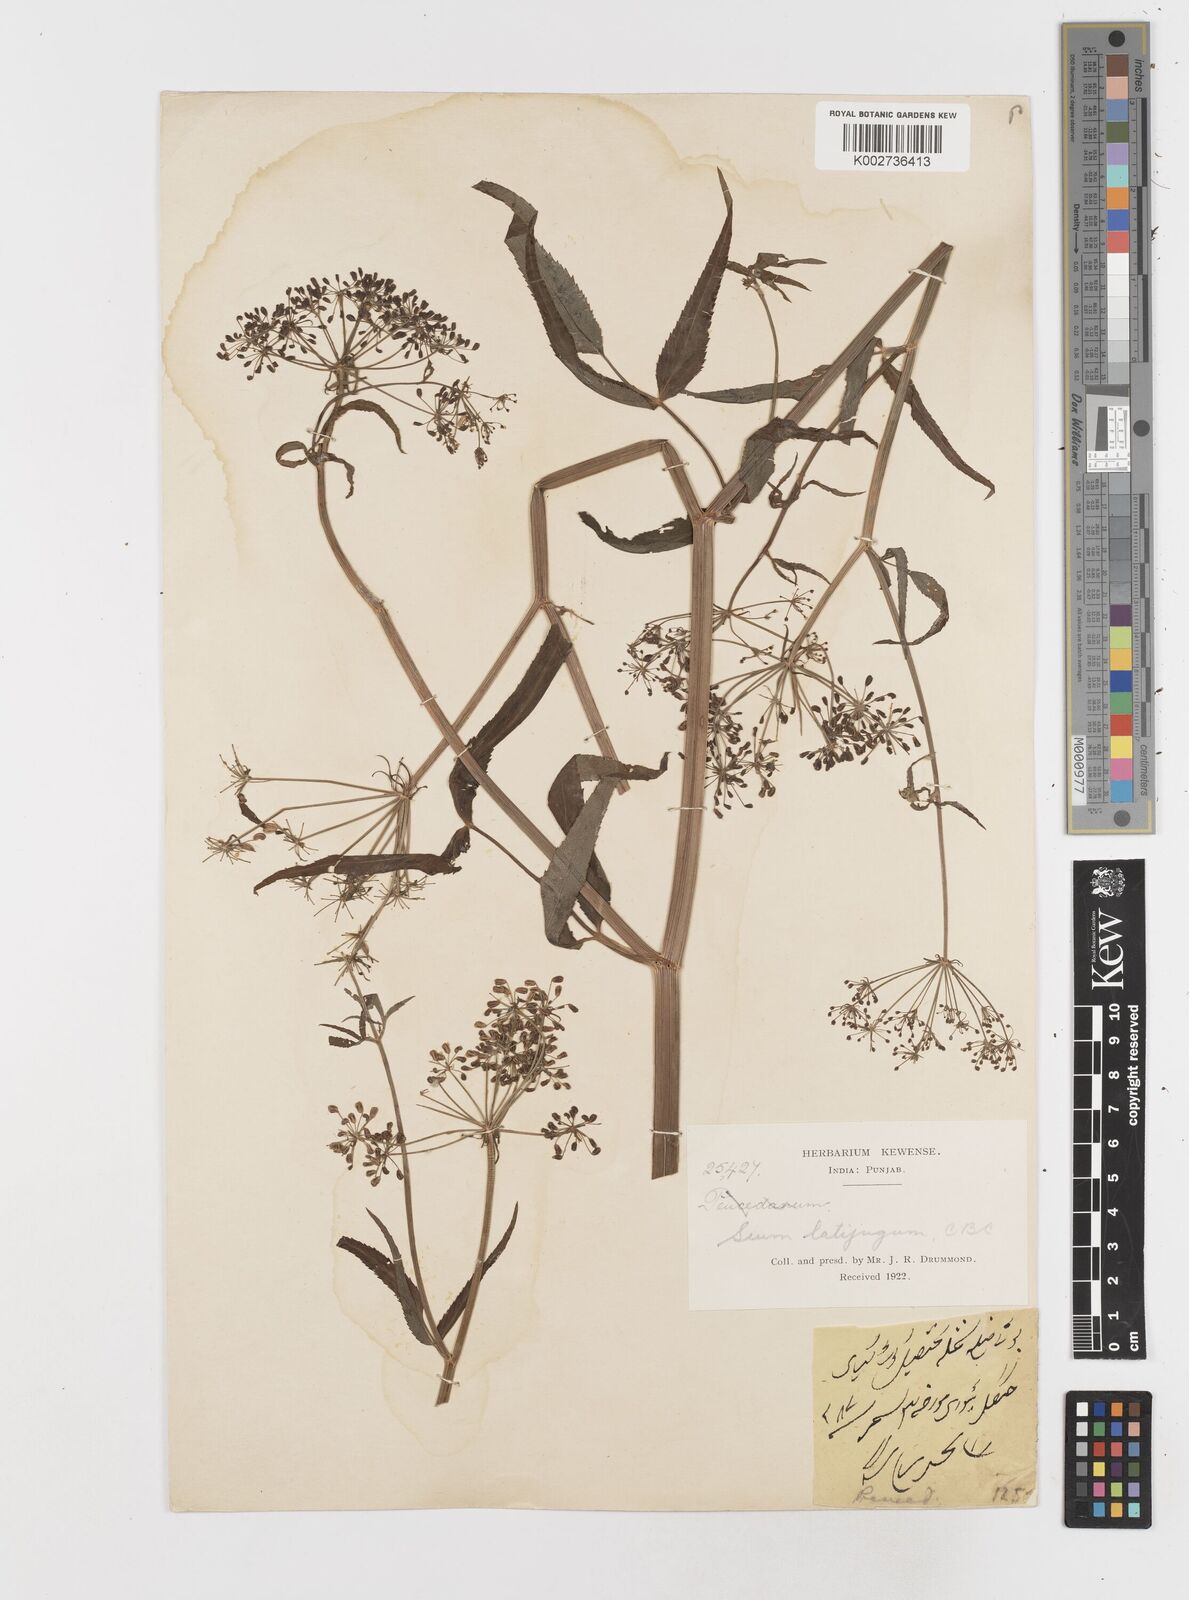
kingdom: Plantae
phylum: Tracheophyta
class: Magnoliopsida
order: Apiales
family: Apiaceae
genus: Sium
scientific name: Sium sisarum
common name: Skirret
